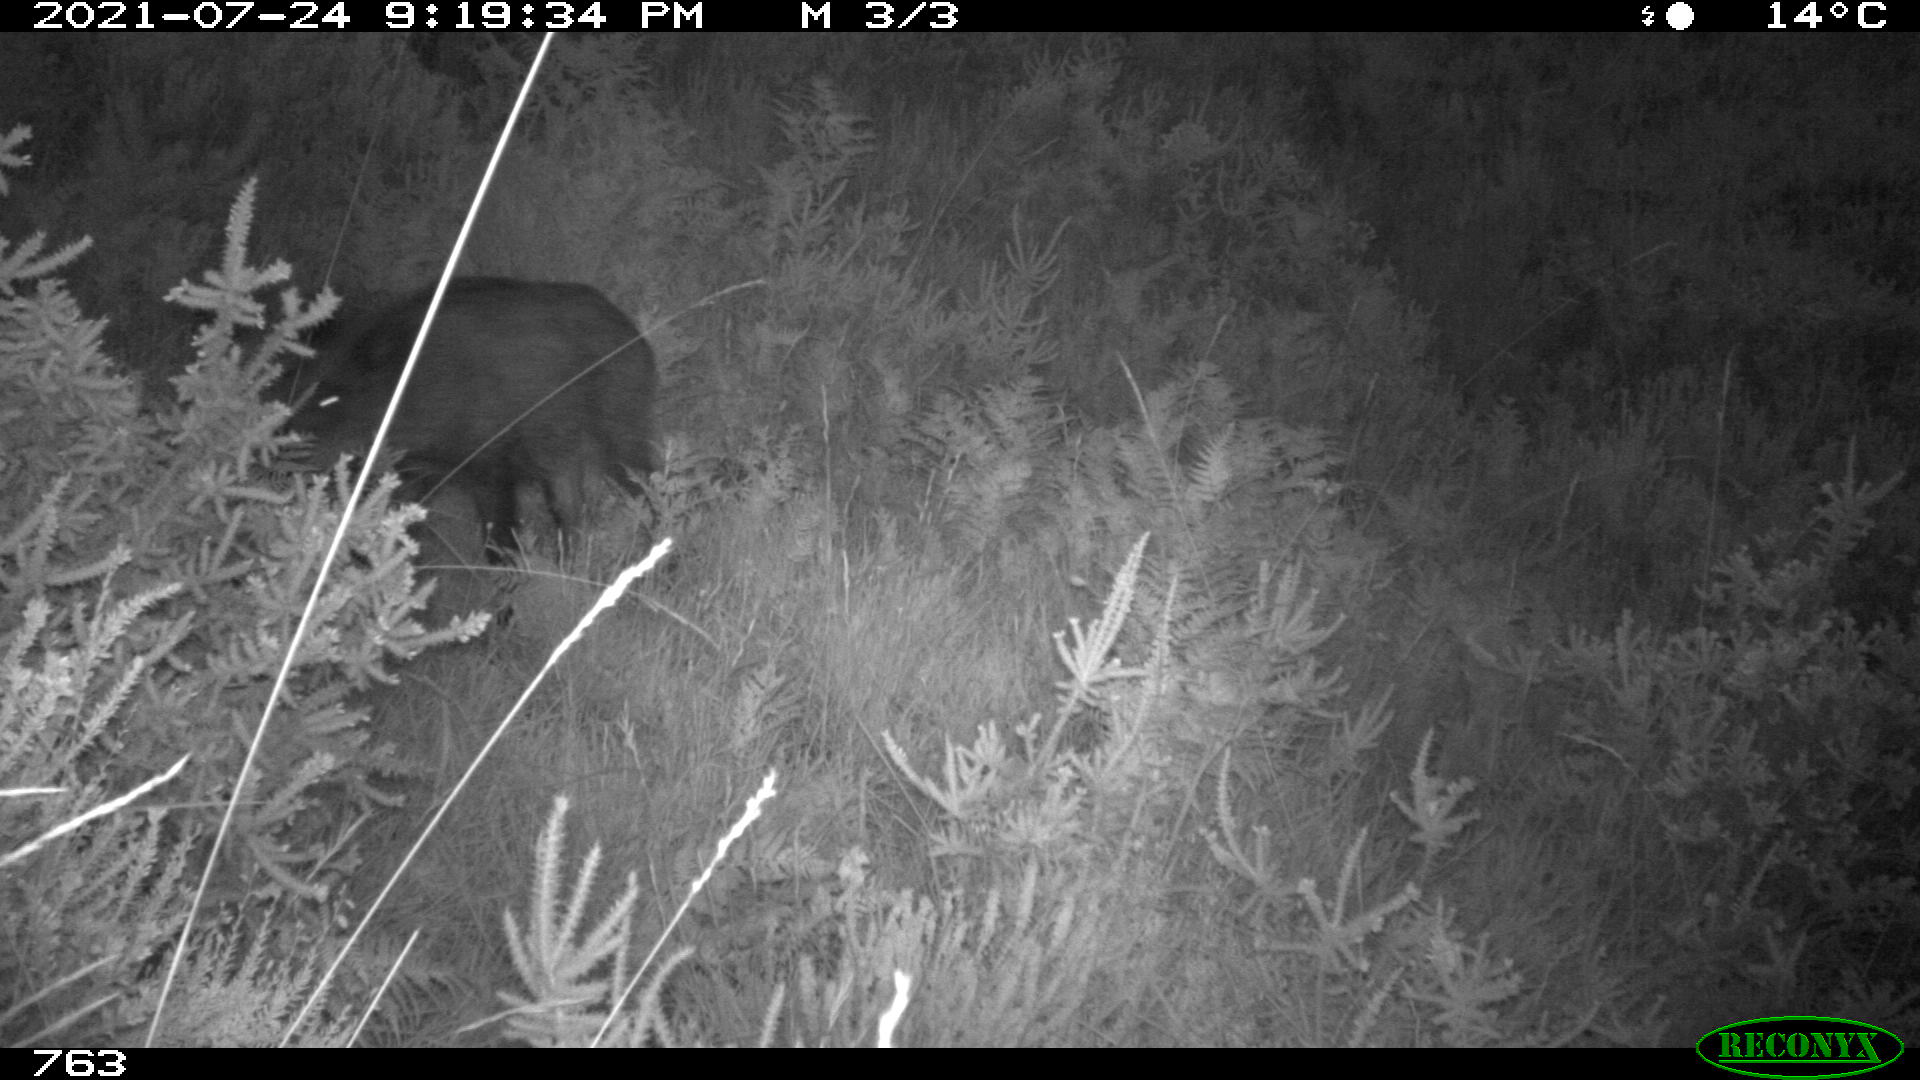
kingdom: Animalia
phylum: Chordata
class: Mammalia
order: Artiodactyla
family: Suidae
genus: Sus
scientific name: Sus scrofa
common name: Wild boar
